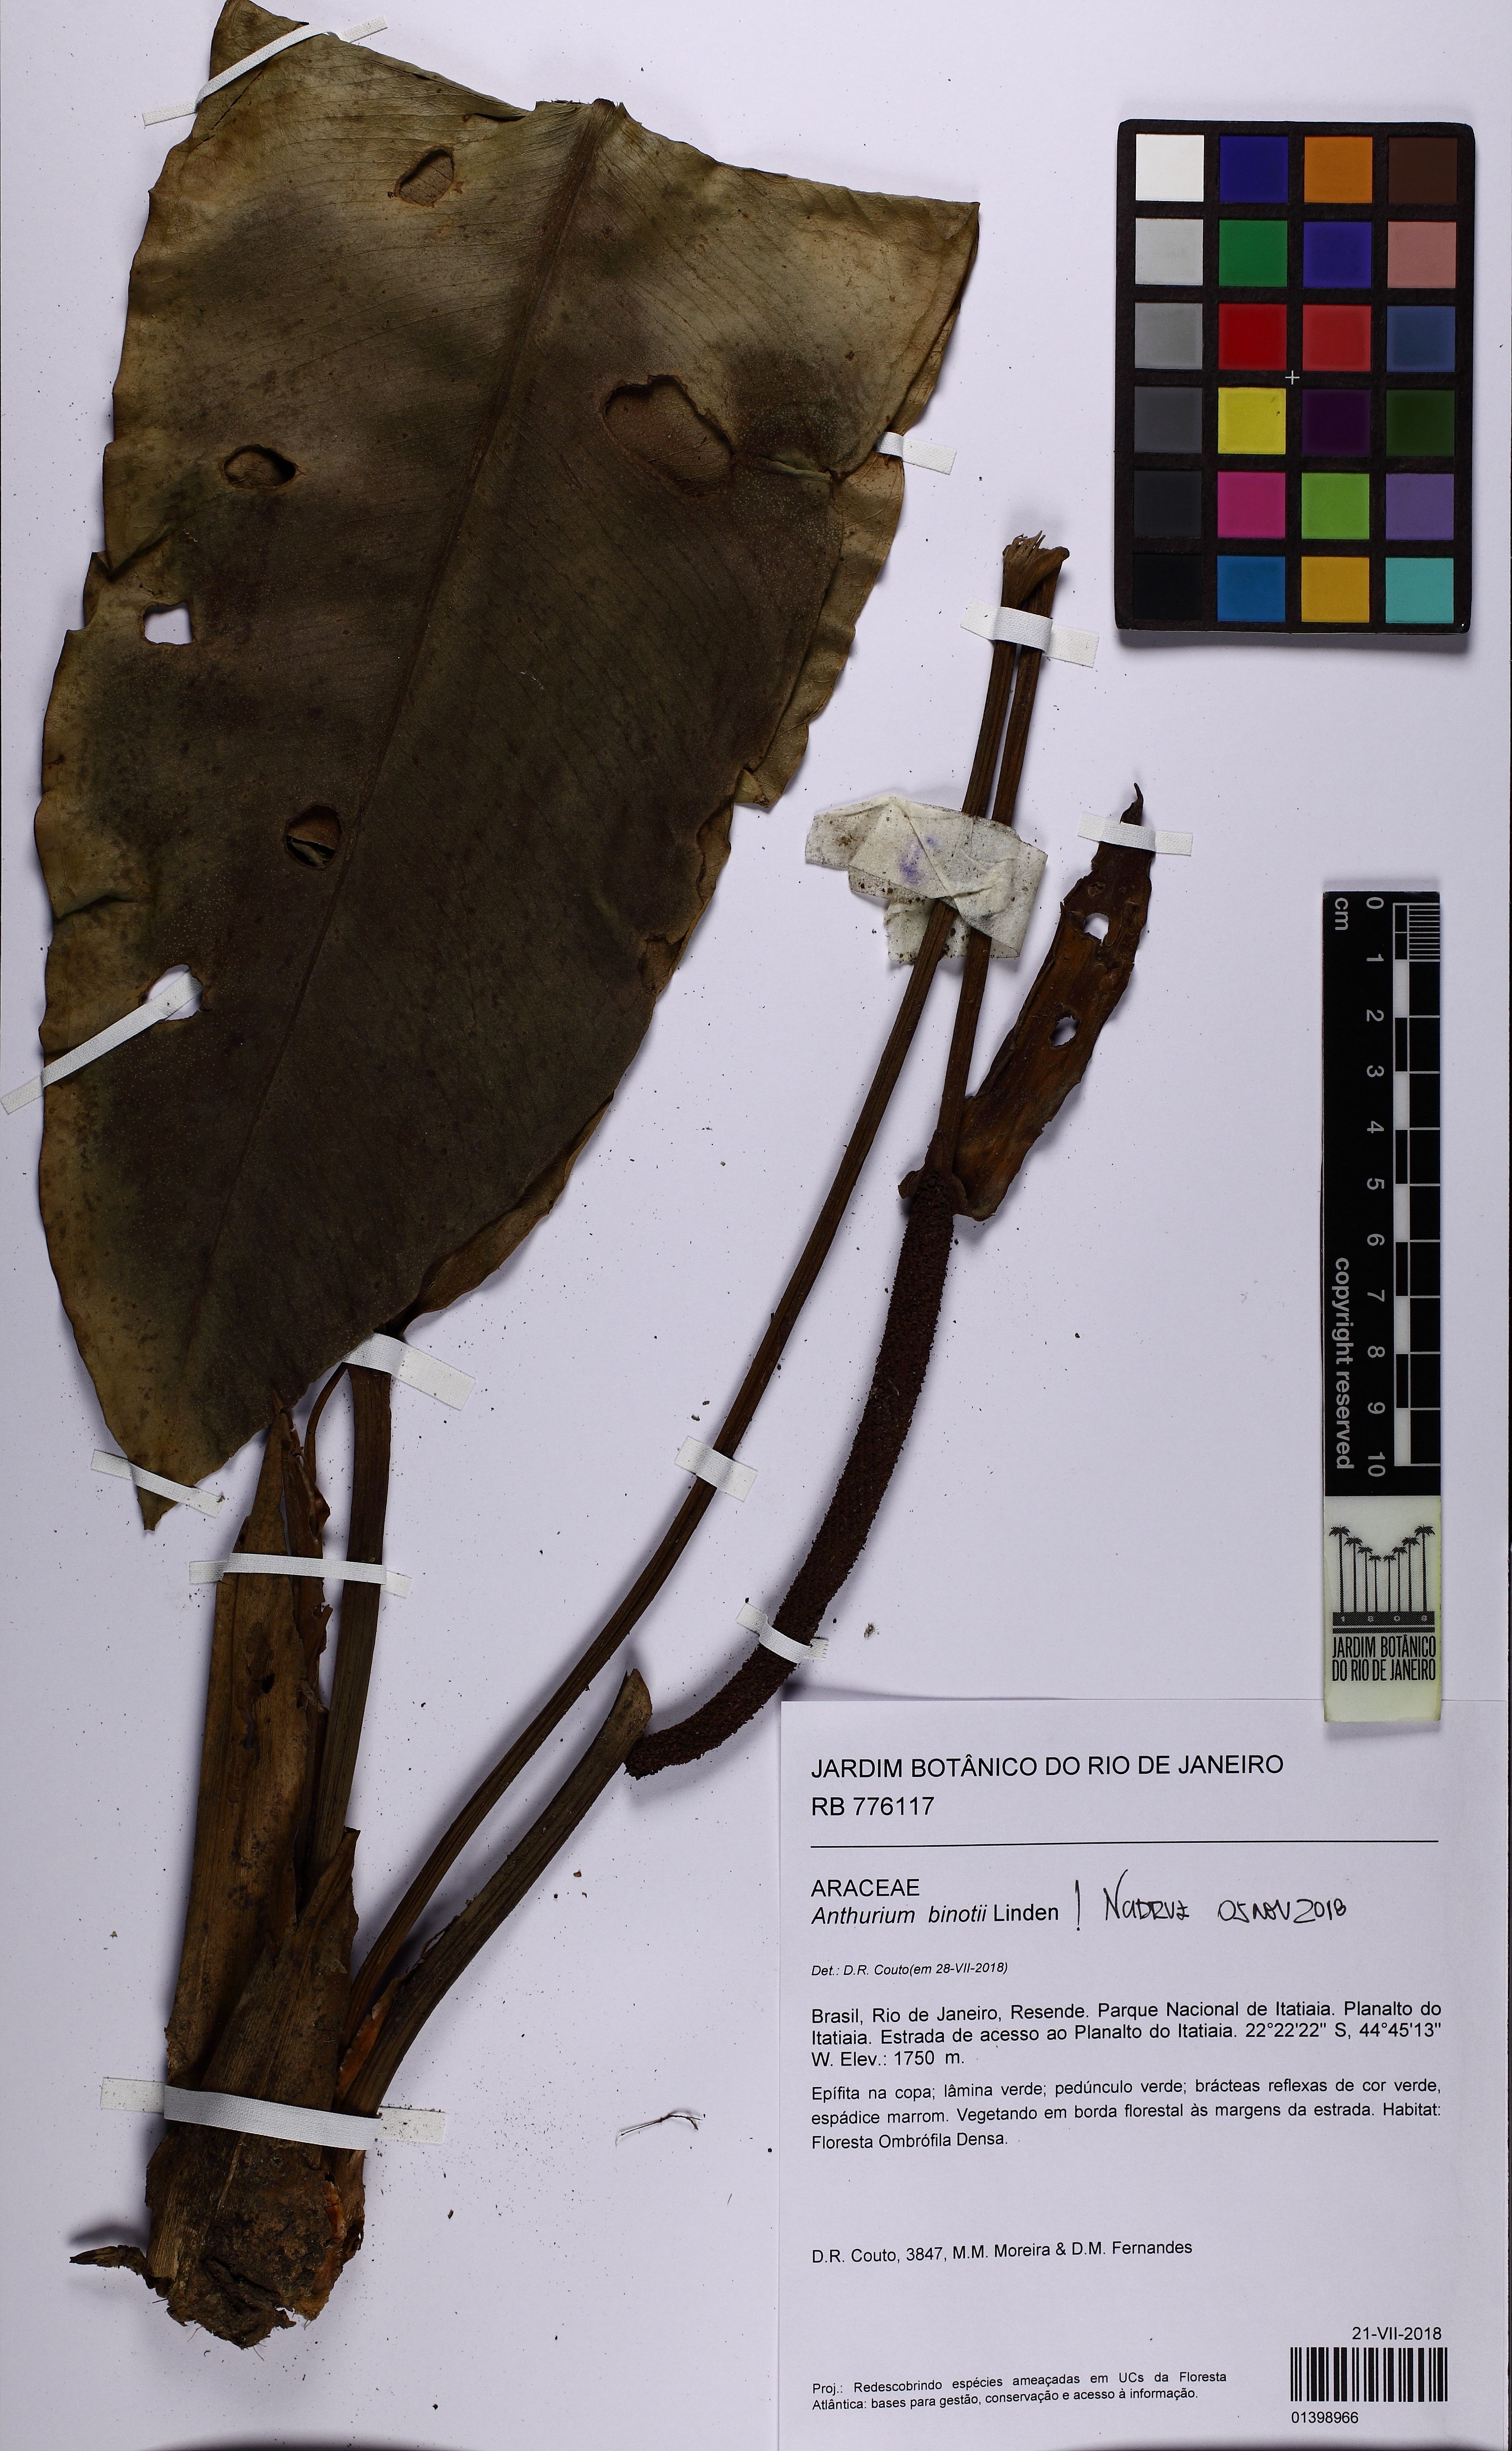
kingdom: Plantae
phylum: Tracheophyta
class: Liliopsida
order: Alismatales
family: Araceae
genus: Anthurium
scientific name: Anthurium binotii
